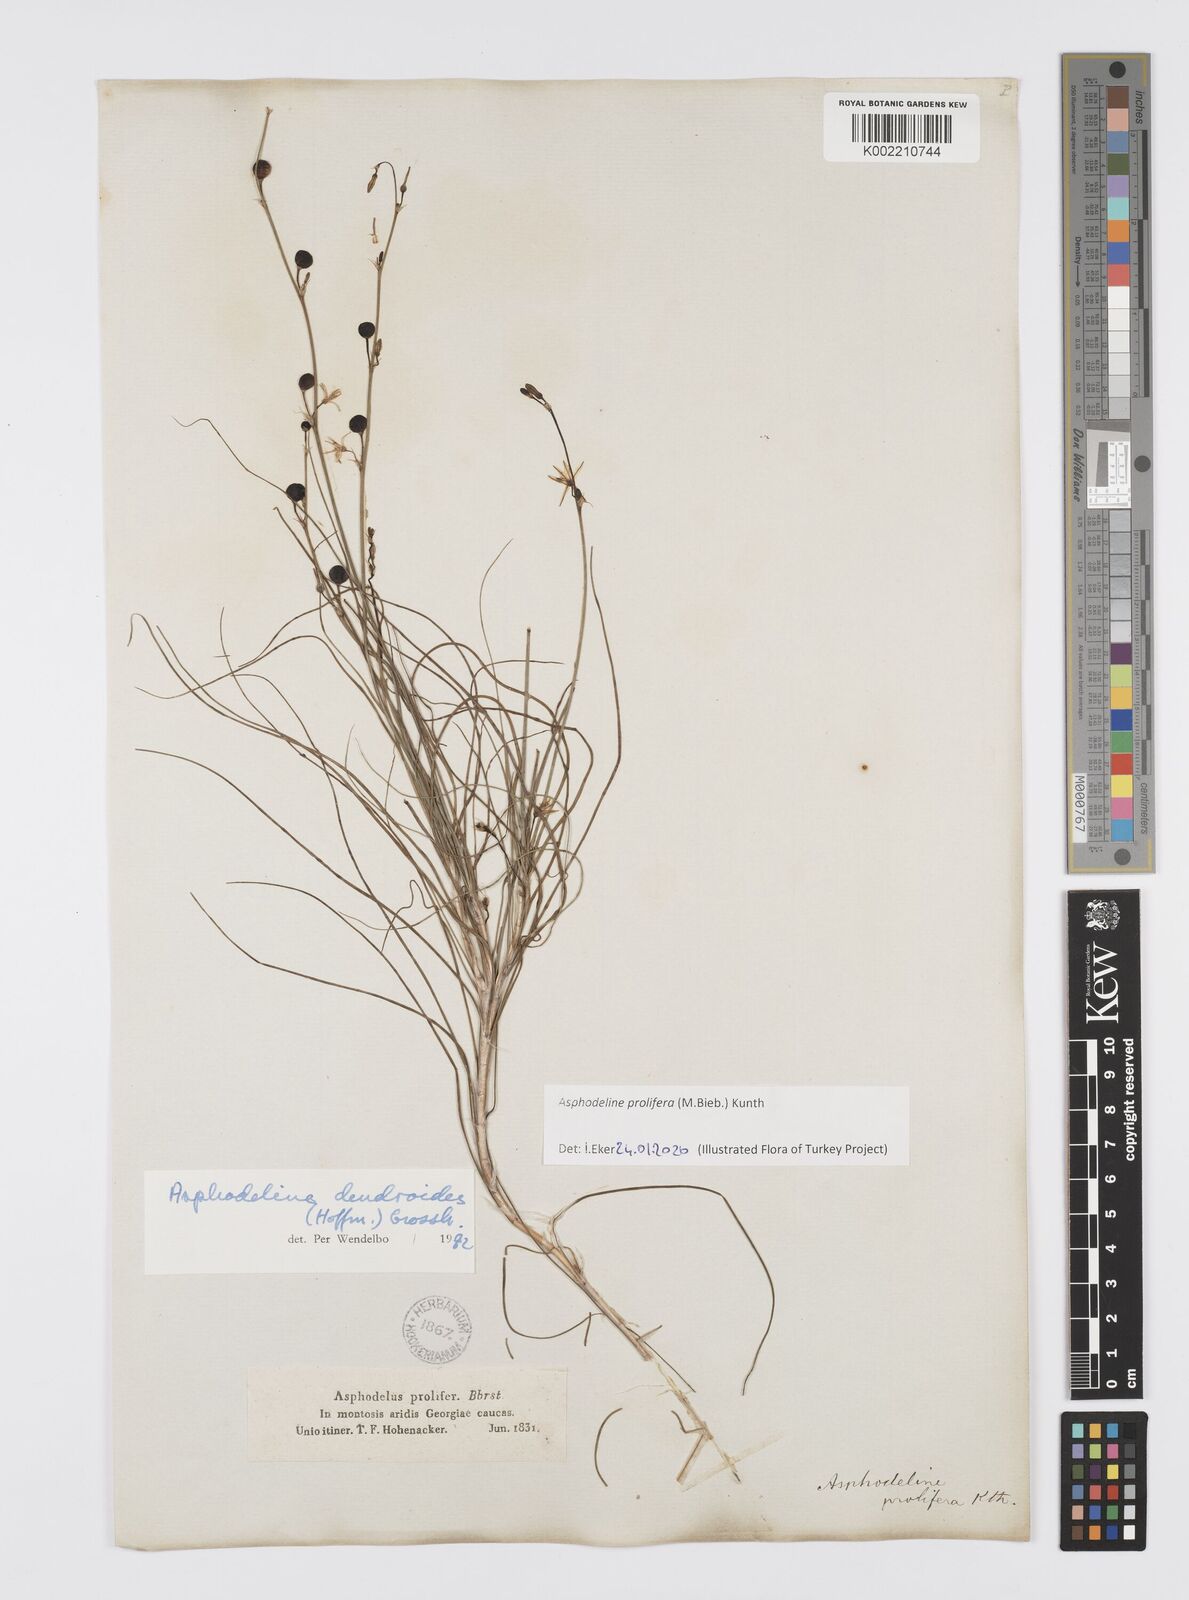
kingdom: Plantae
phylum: Tracheophyta
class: Liliopsida
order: Asparagales
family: Asphodelaceae
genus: Asphodeline
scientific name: Asphodeline prolifera
